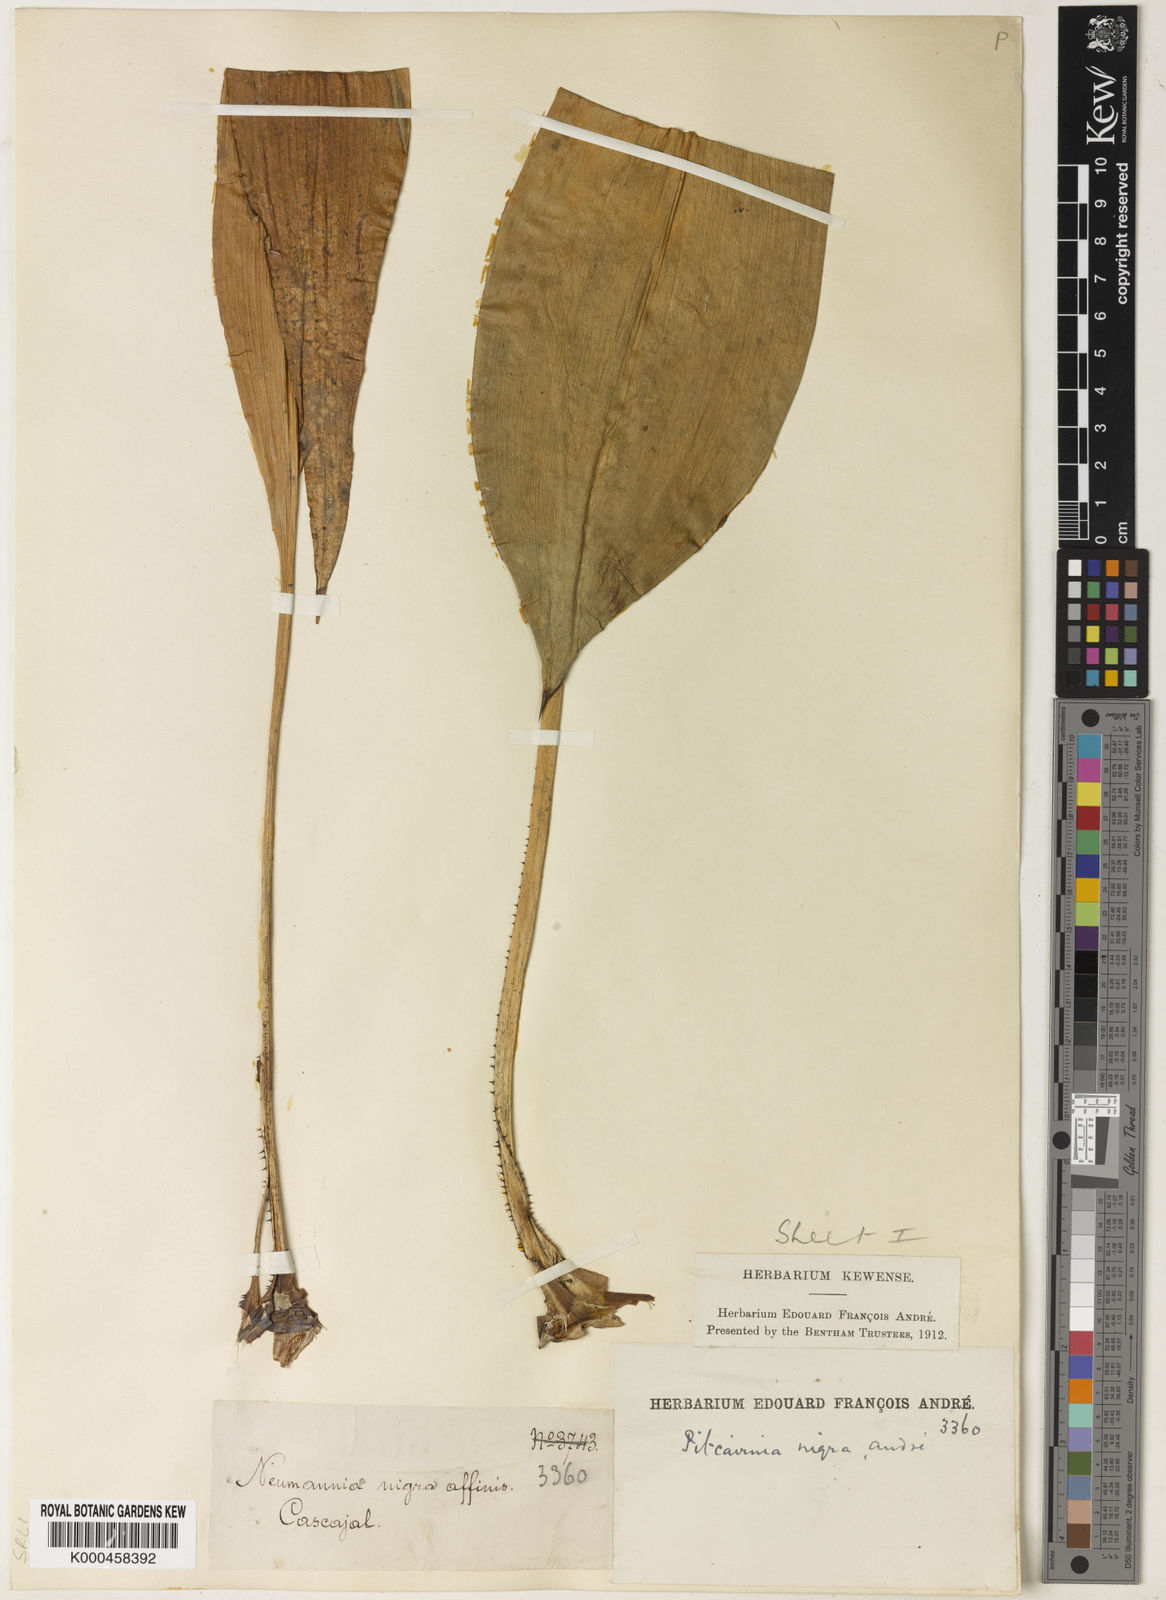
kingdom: Plantae
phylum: Tracheophyta
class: Liliopsida
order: Poales
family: Bromeliaceae
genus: Pitcairnia
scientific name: Pitcairnia
